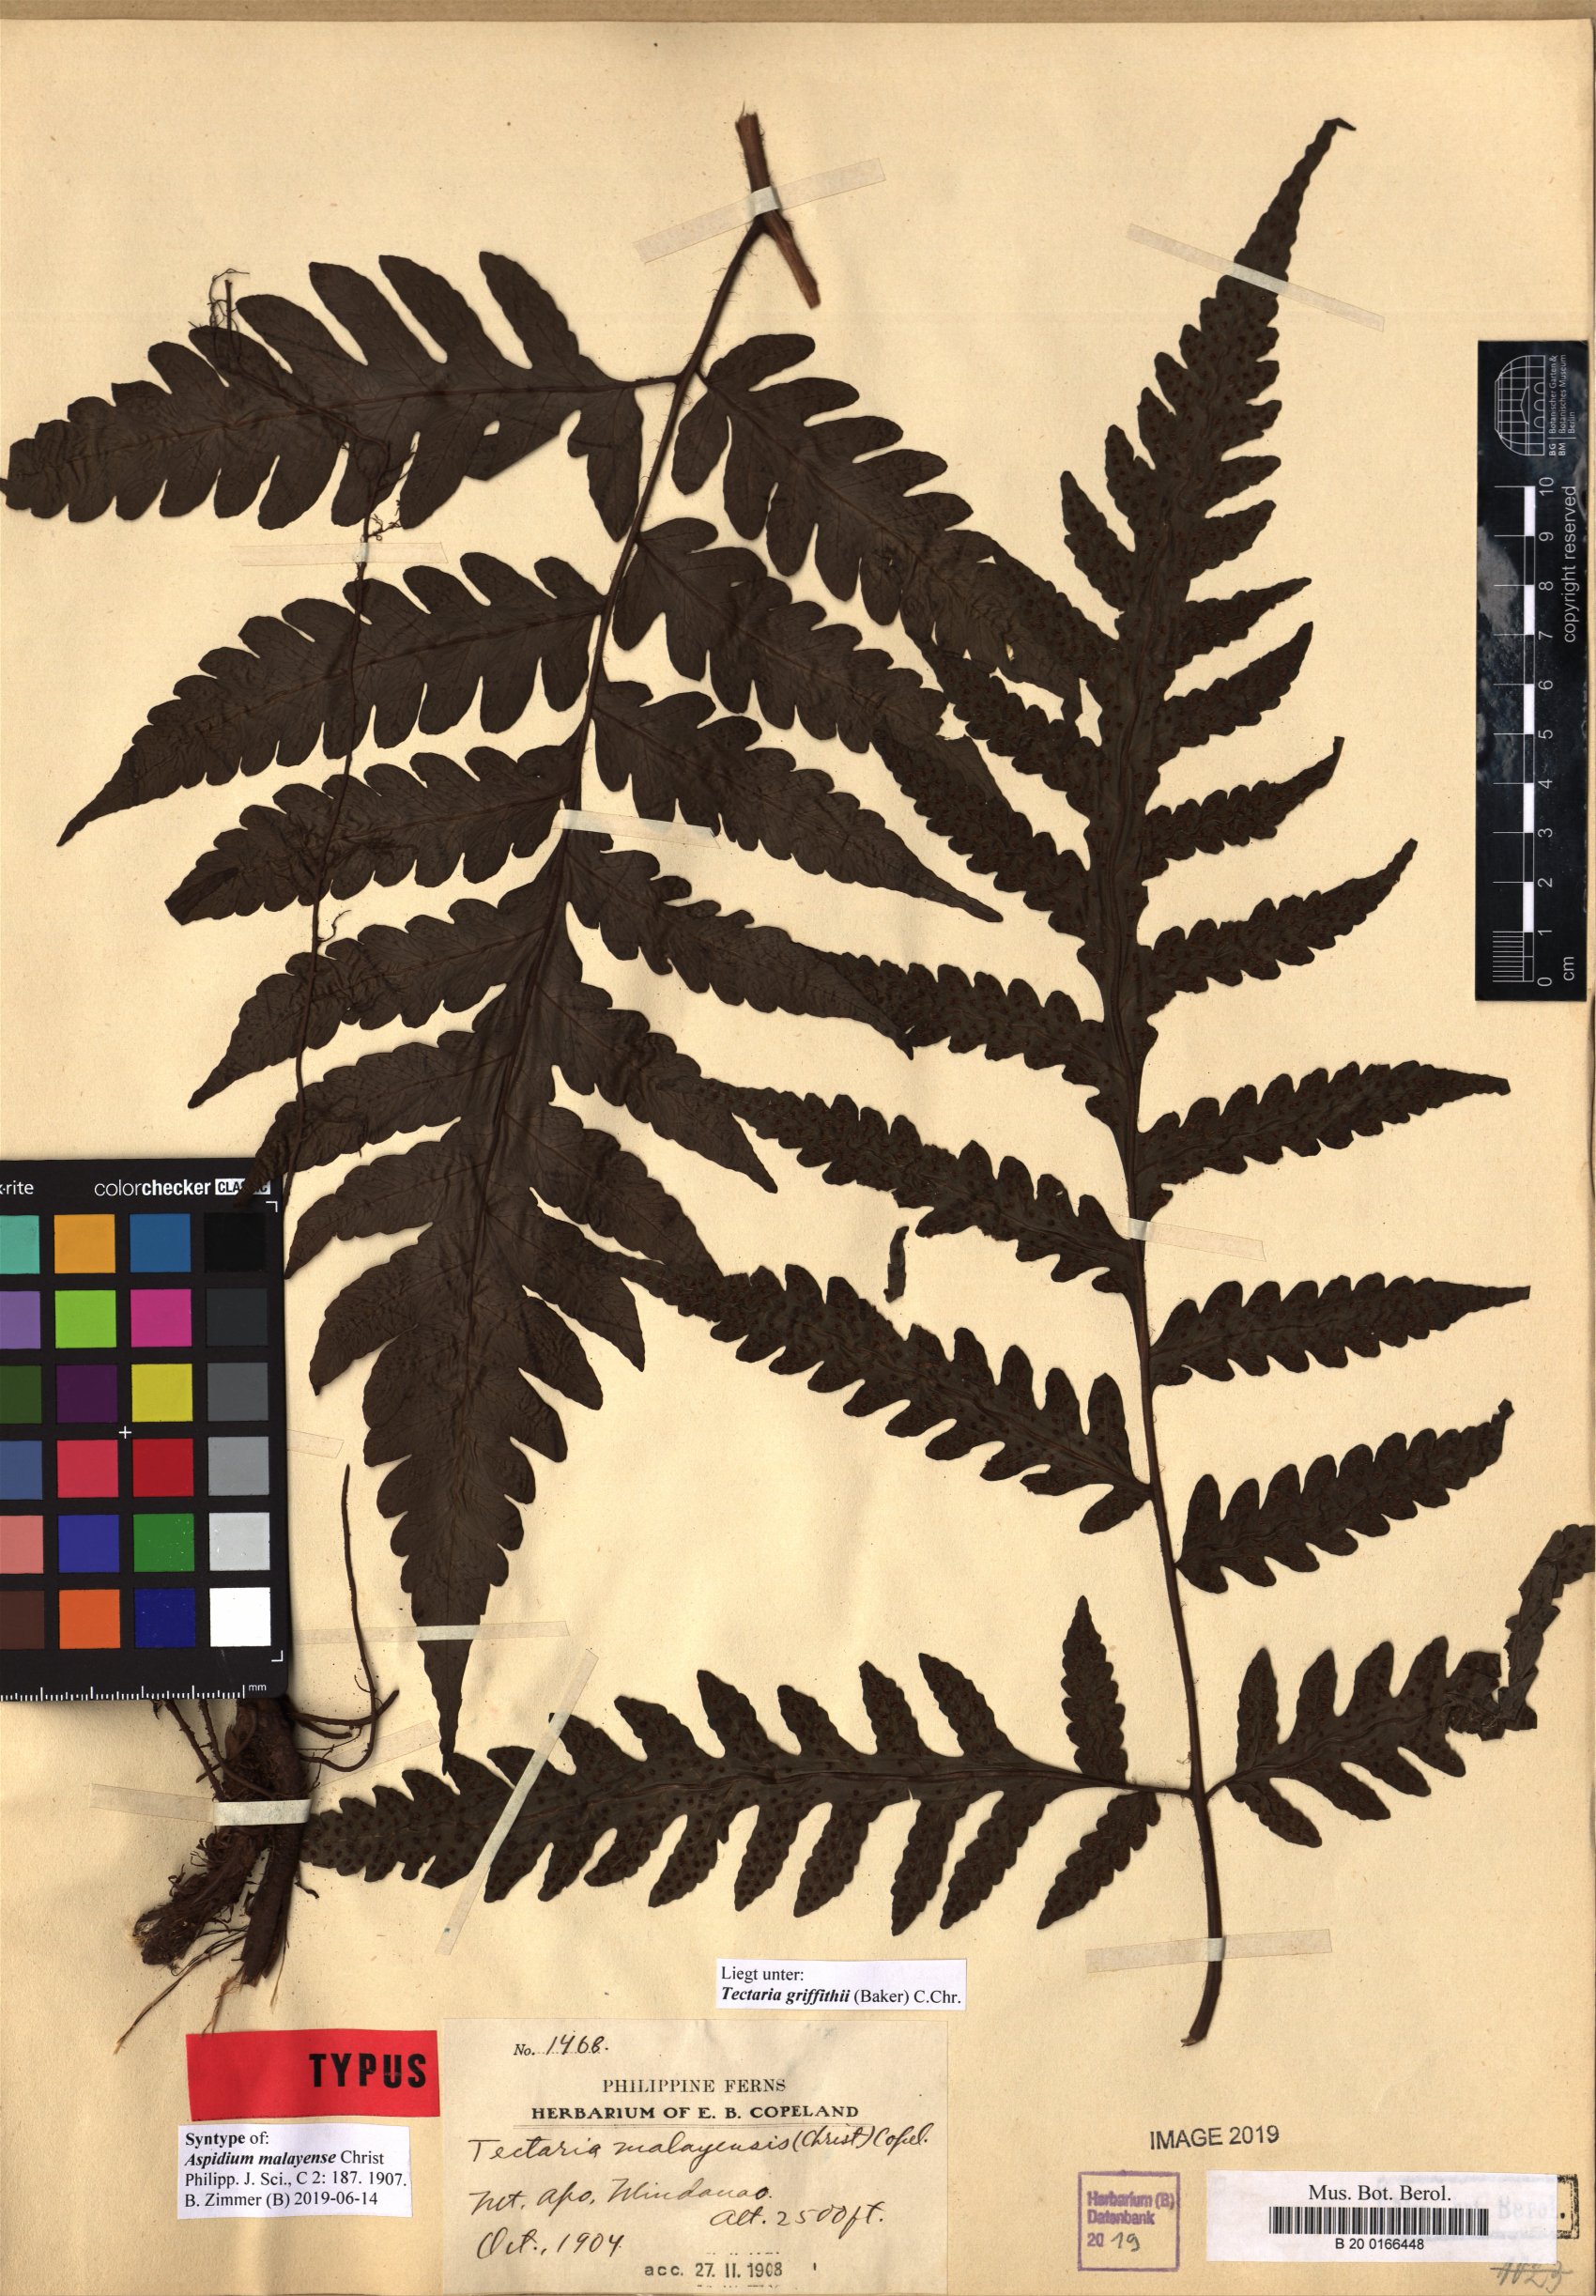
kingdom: Plantae
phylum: Tracheophyta
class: Polypodiopsida
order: Polypodiales
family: Tectariaceae
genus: Tectaria
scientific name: Tectaria multicaudata
